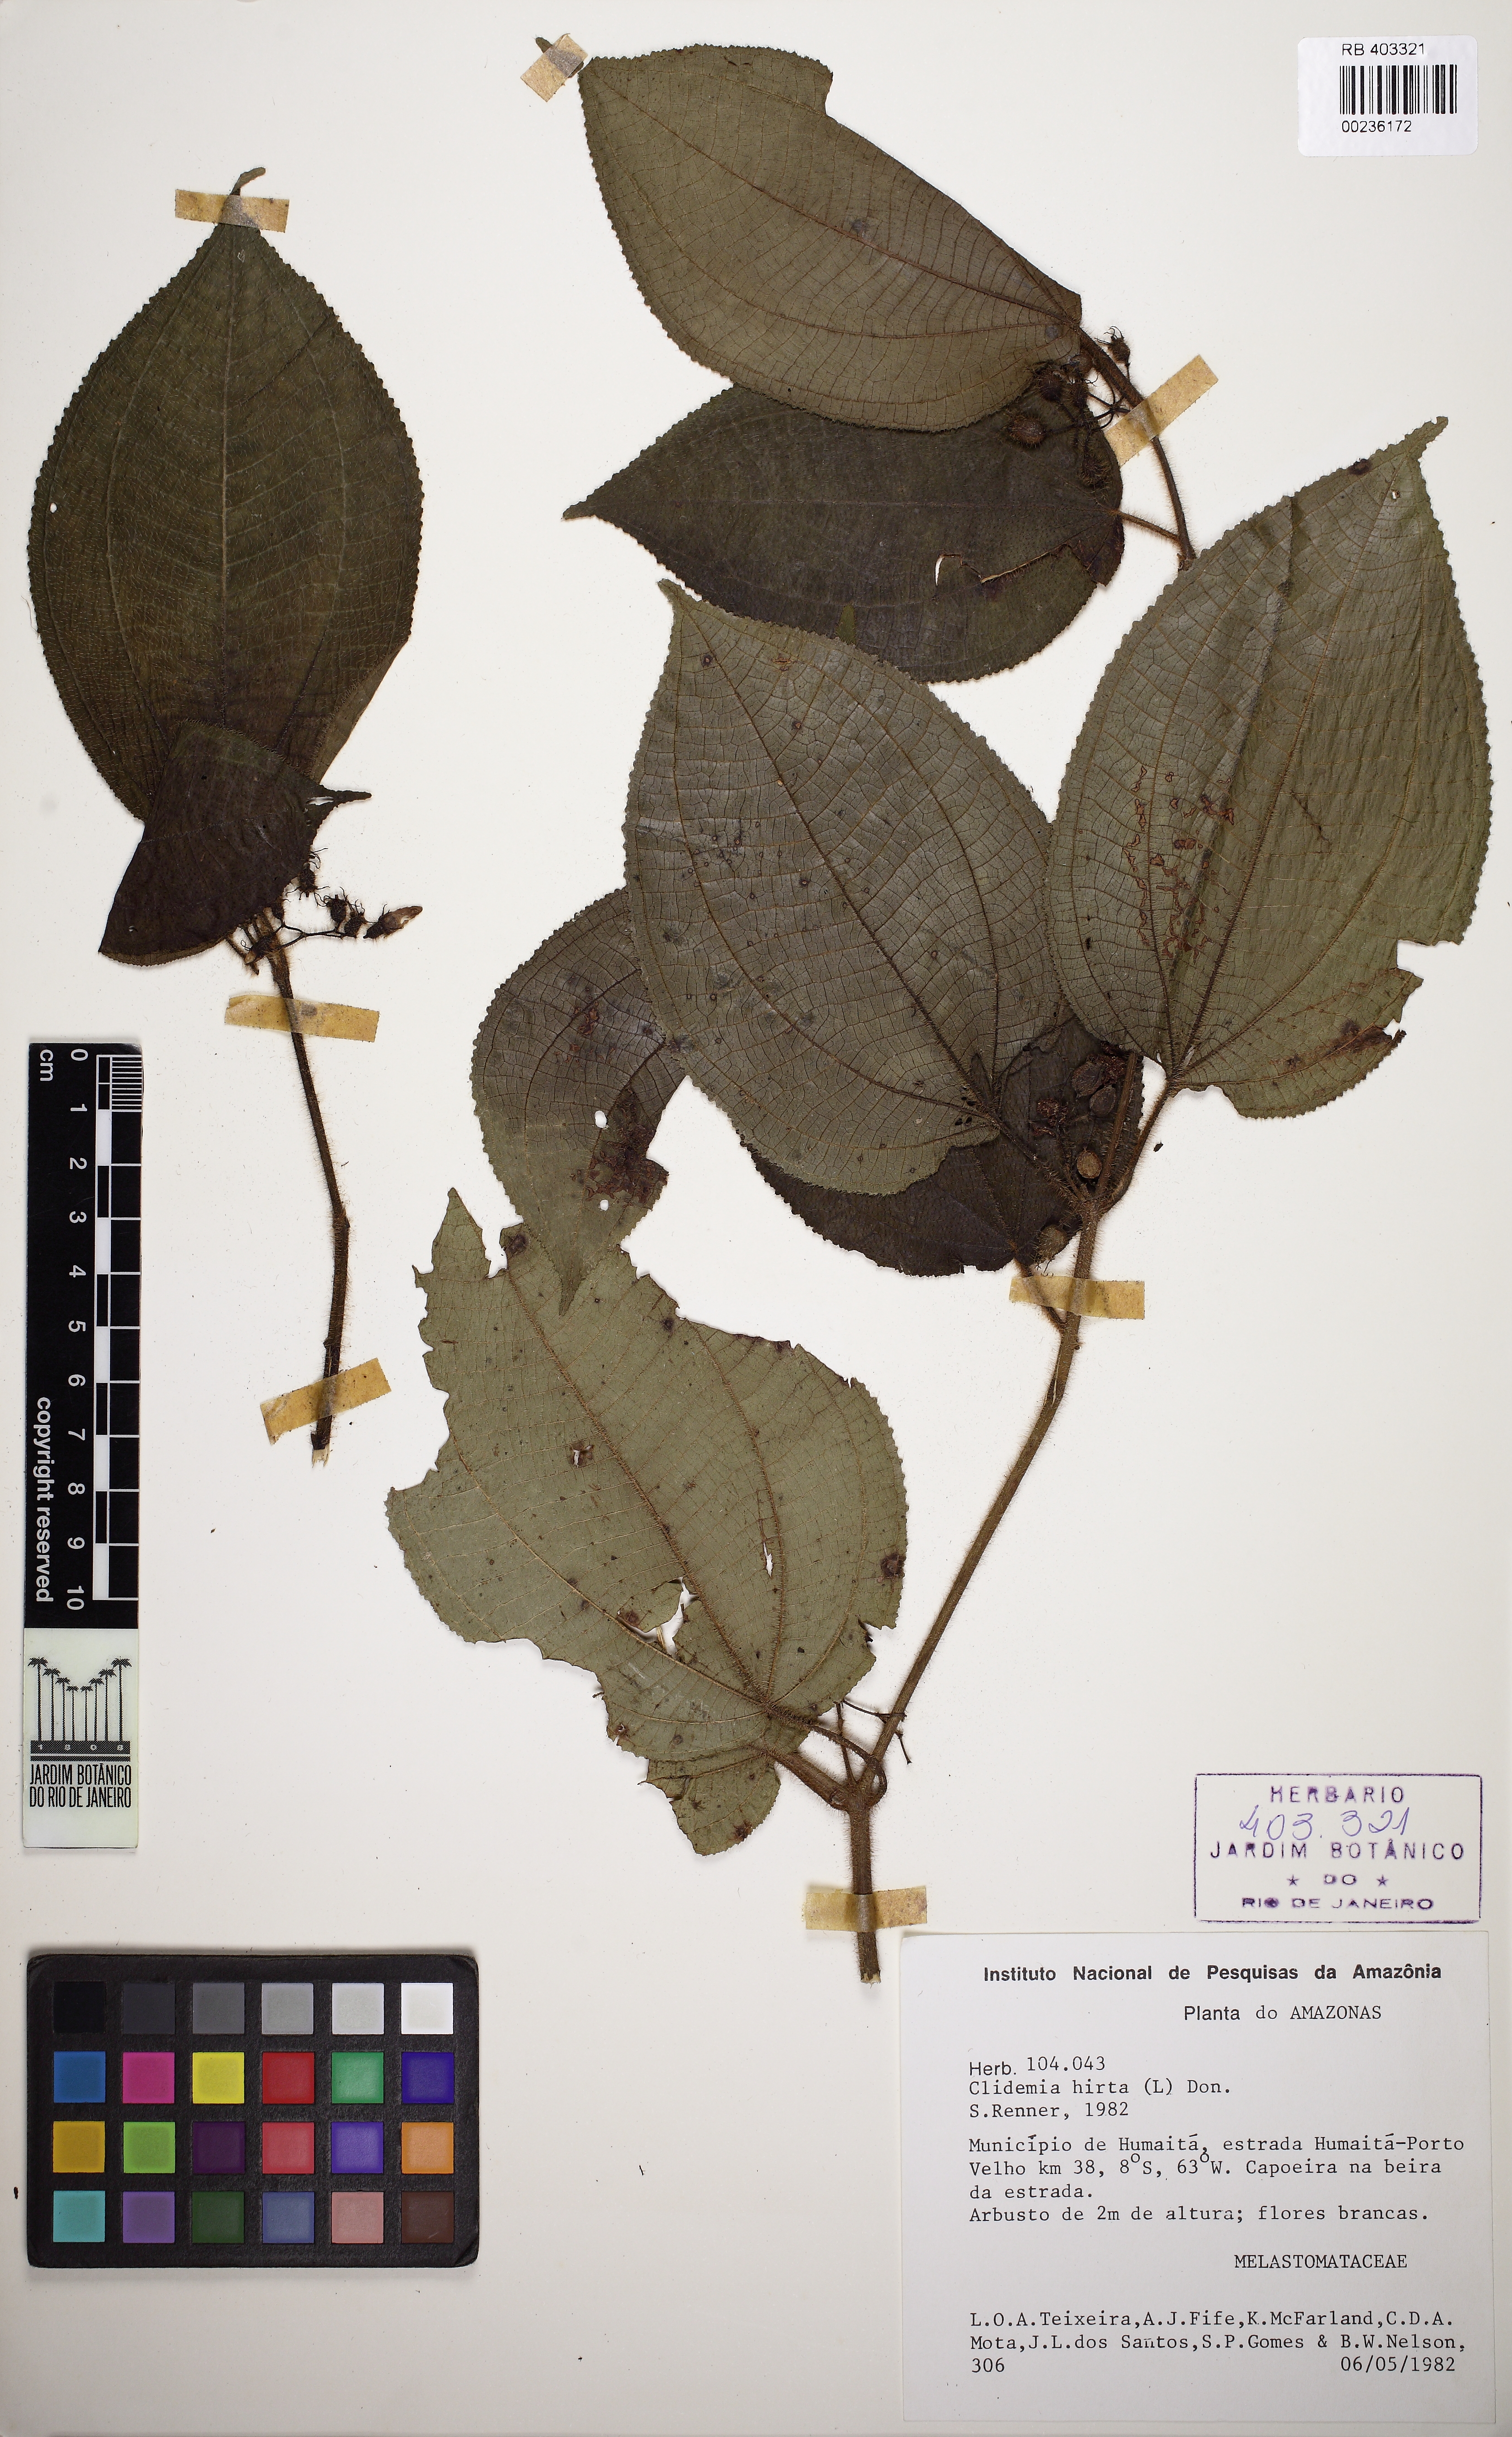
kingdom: Plantae
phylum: Tracheophyta
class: Magnoliopsida
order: Myrtales
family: Melastomataceae
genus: Miconia
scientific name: Miconia crenata
